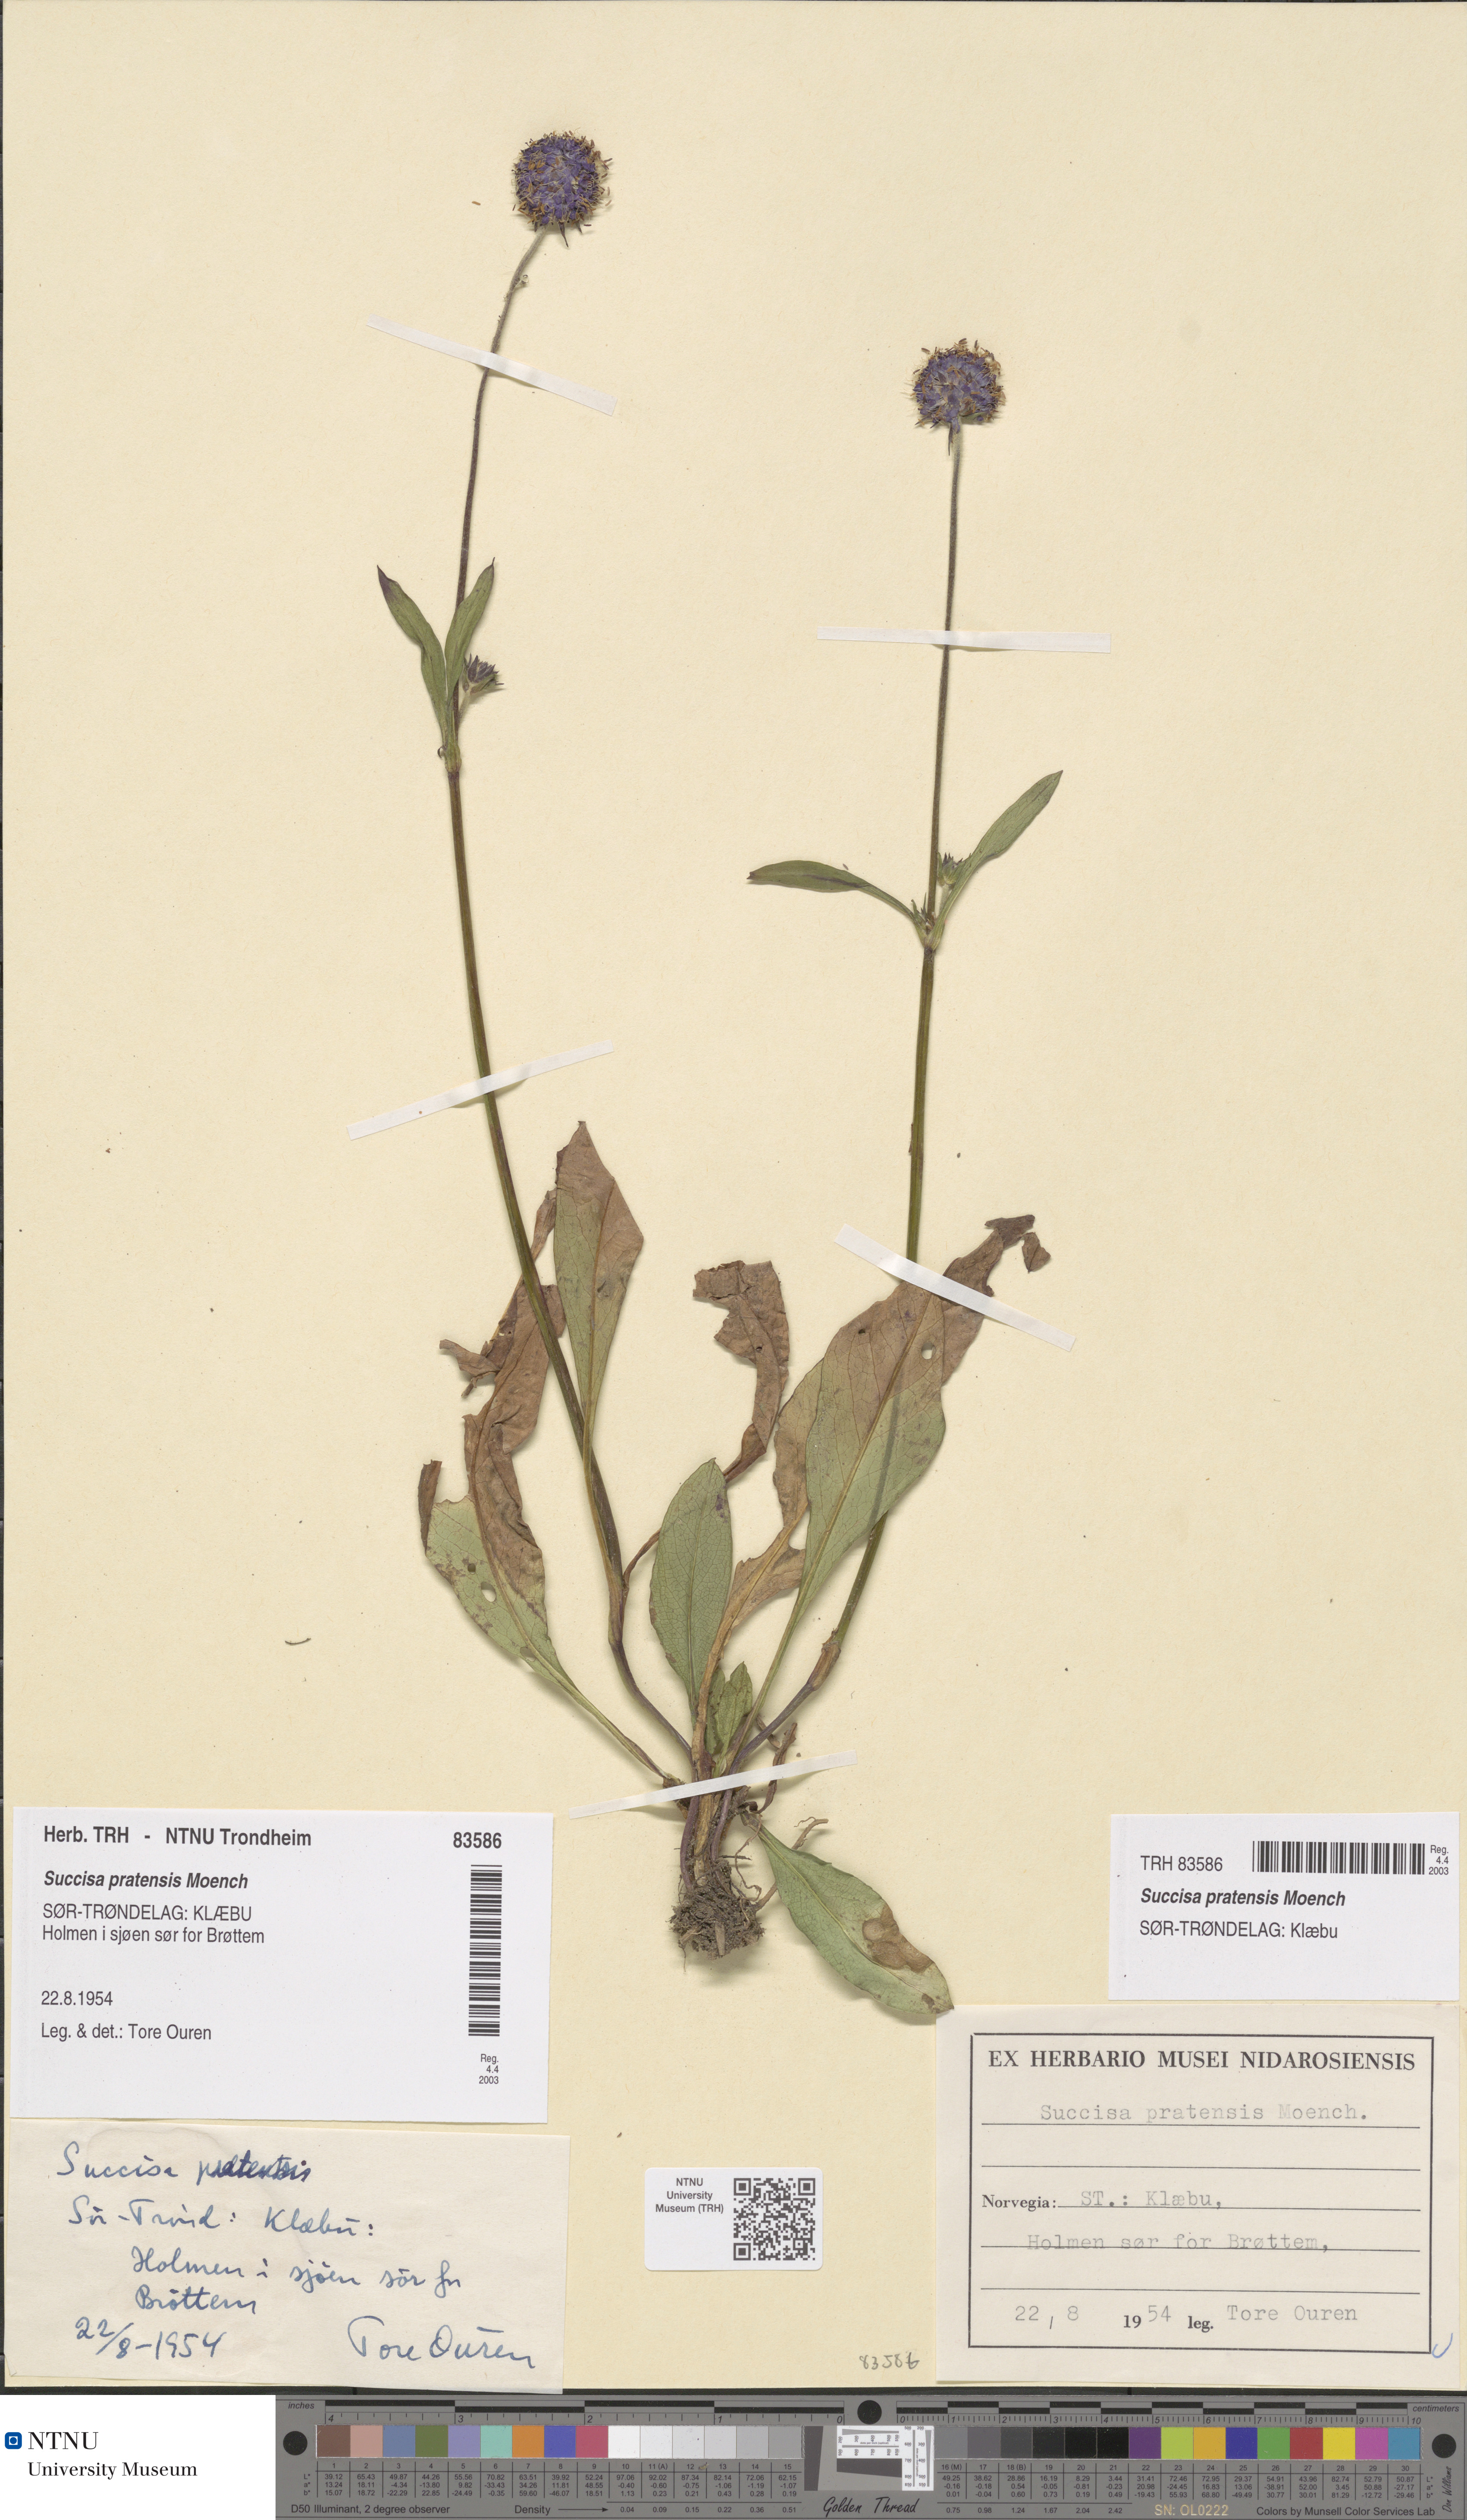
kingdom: Plantae
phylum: Tracheophyta
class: Magnoliopsida
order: Dipsacales
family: Caprifoliaceae
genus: Succisa
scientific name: Succisa pratensis
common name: Devil's-bit
